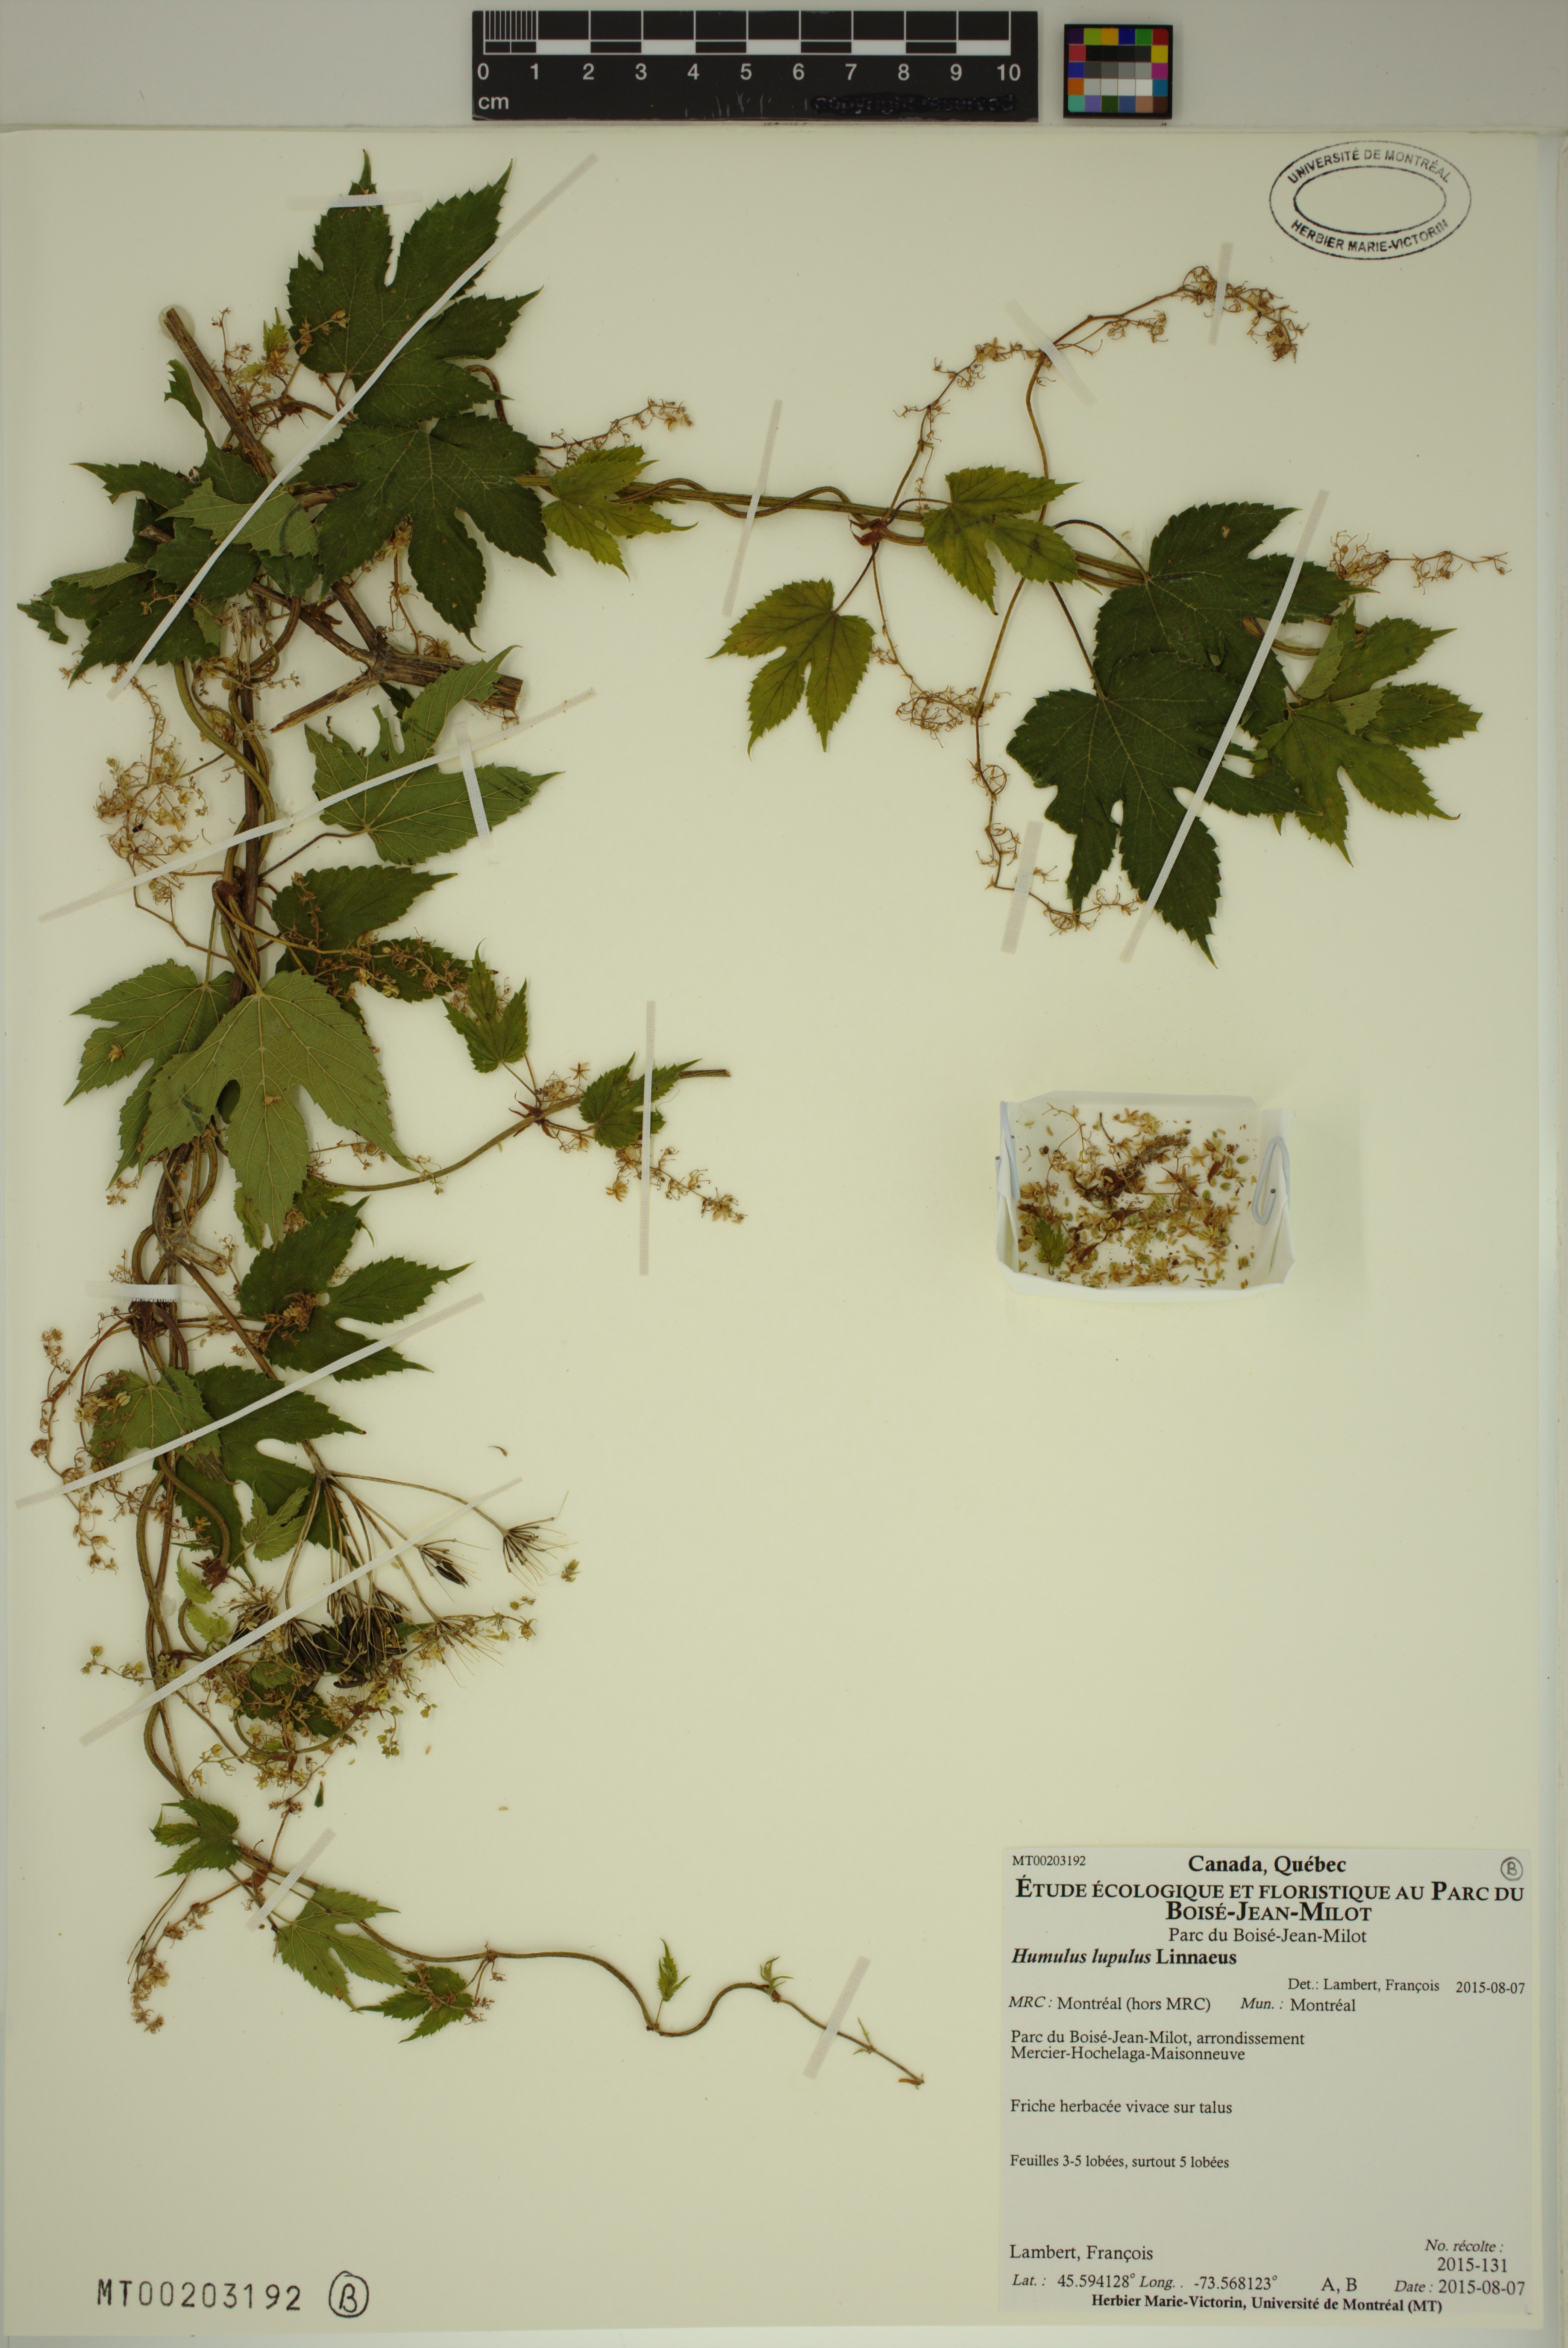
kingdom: Plantae
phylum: Tracheophyta
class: Magnoliopsida
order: Rosales
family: Cannabaceae
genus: Humulus
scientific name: Humulus lupulus
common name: Hop
